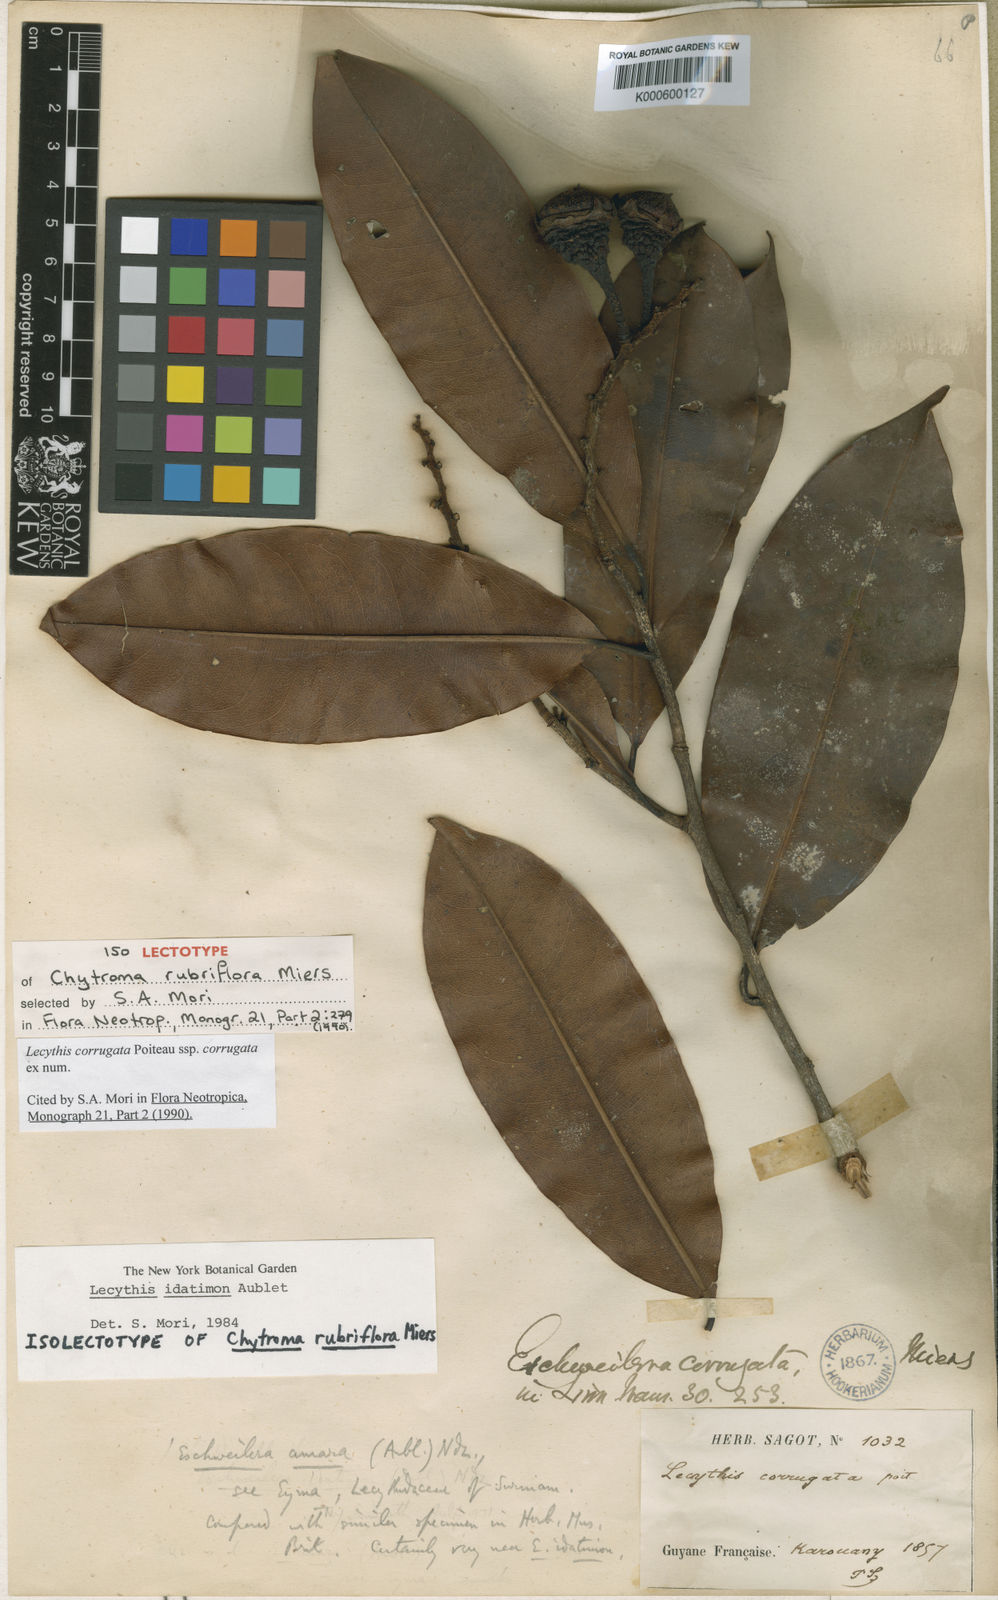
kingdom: Plantae
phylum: Tracheophyta
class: Magnoliopsida
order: Ericales
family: Lecythidaceae
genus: Lecythis
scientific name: Lecythis corrugata
